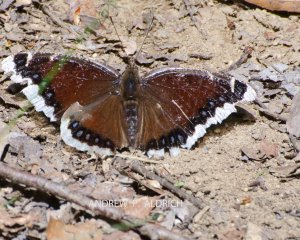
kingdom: Animalia
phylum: Arthropoda
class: Insecta
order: Lepidoptera
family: Nymphalidae
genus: Nymphalis
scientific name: Nymphalis antiopa
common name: Mourning Cloak
